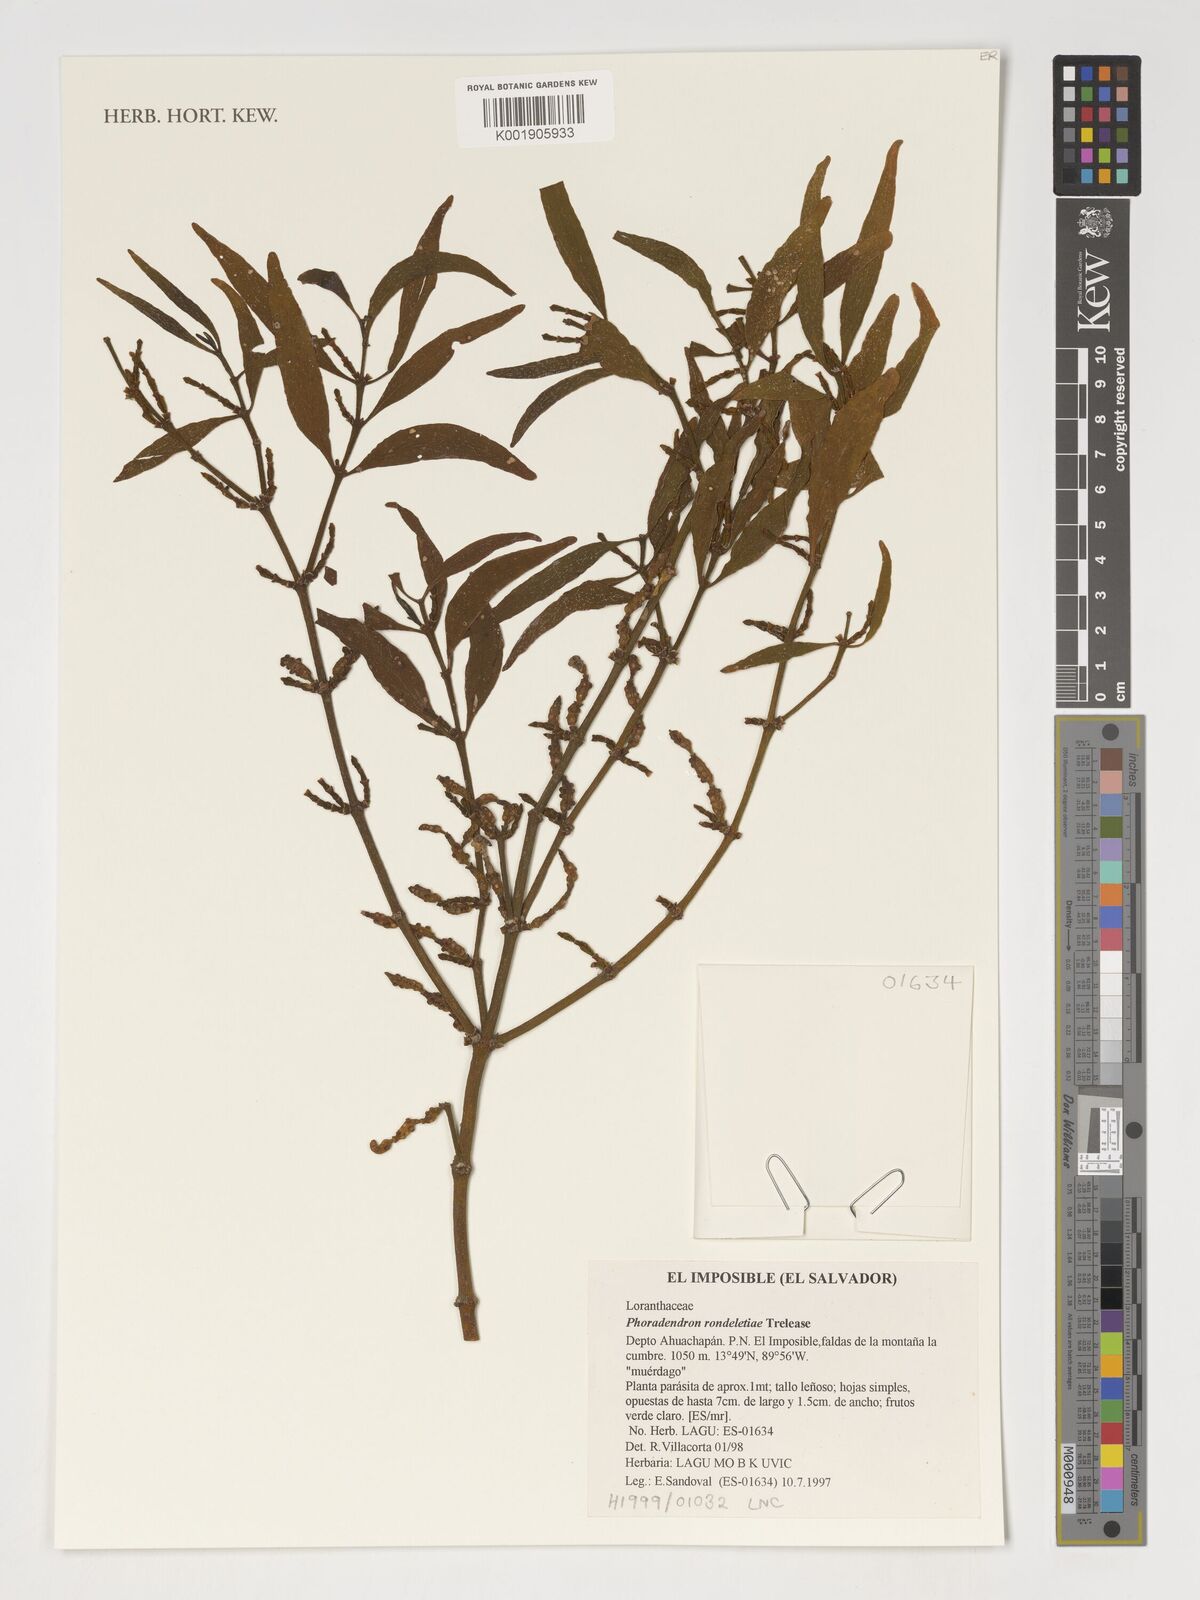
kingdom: Plantae
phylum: Tracheophyta
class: Magnoliopsida
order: Santalales
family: Viscaceae
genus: Phoradendron
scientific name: Phoradendron costaricense
